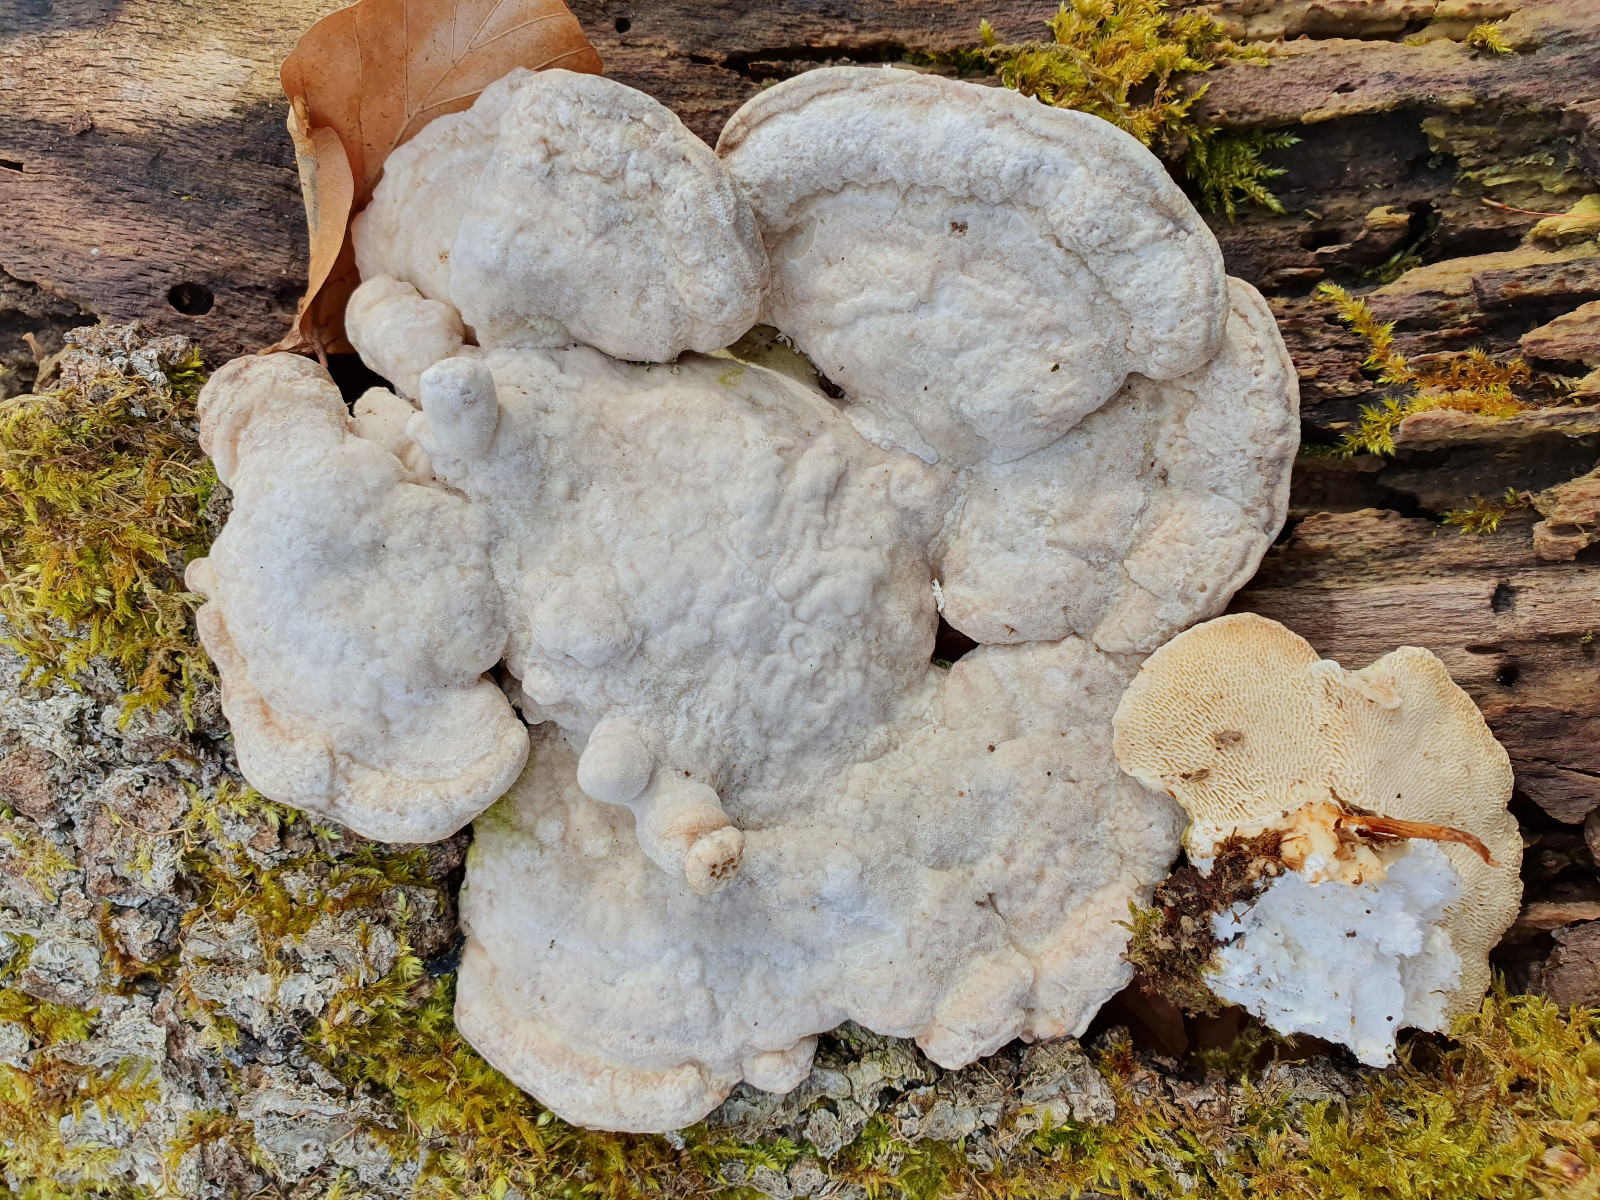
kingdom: Fungi
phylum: Basidiomycota
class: Agaricomycetes
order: Polyporales
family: Polyporaceae
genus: Trametes
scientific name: Trametes gibbosa
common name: puklet læderporesvamp
